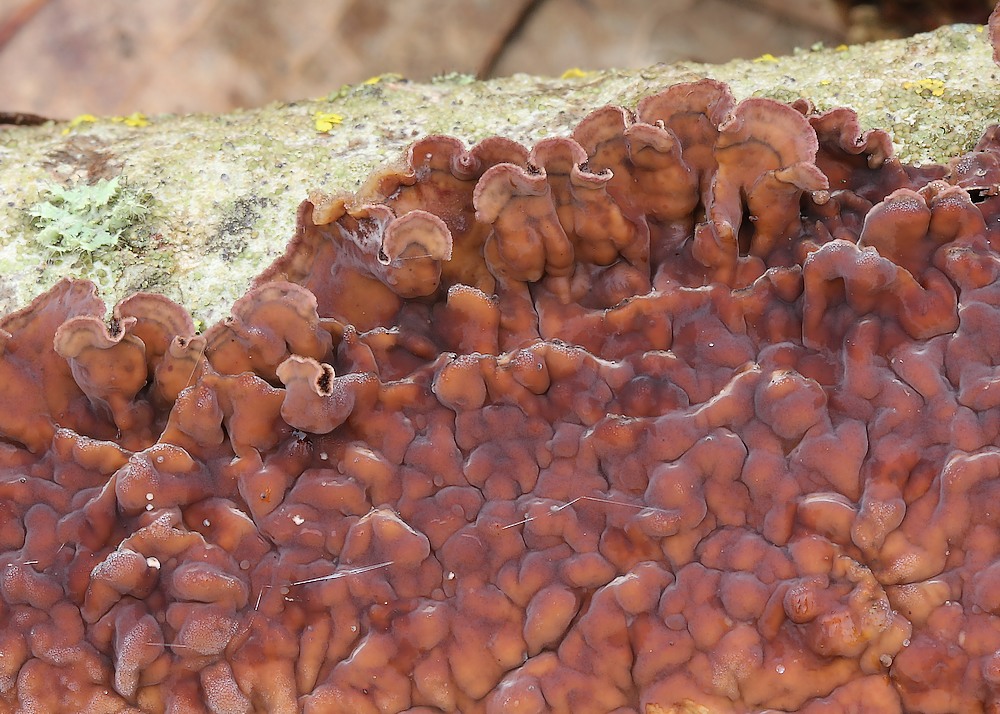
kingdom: Fungi
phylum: Basidiomycota
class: Agaricomycetes
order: Agaricales
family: Cyphellaceae
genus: Chondrostereum
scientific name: Chondrostereum purpureum
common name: purpurlædersvamp
